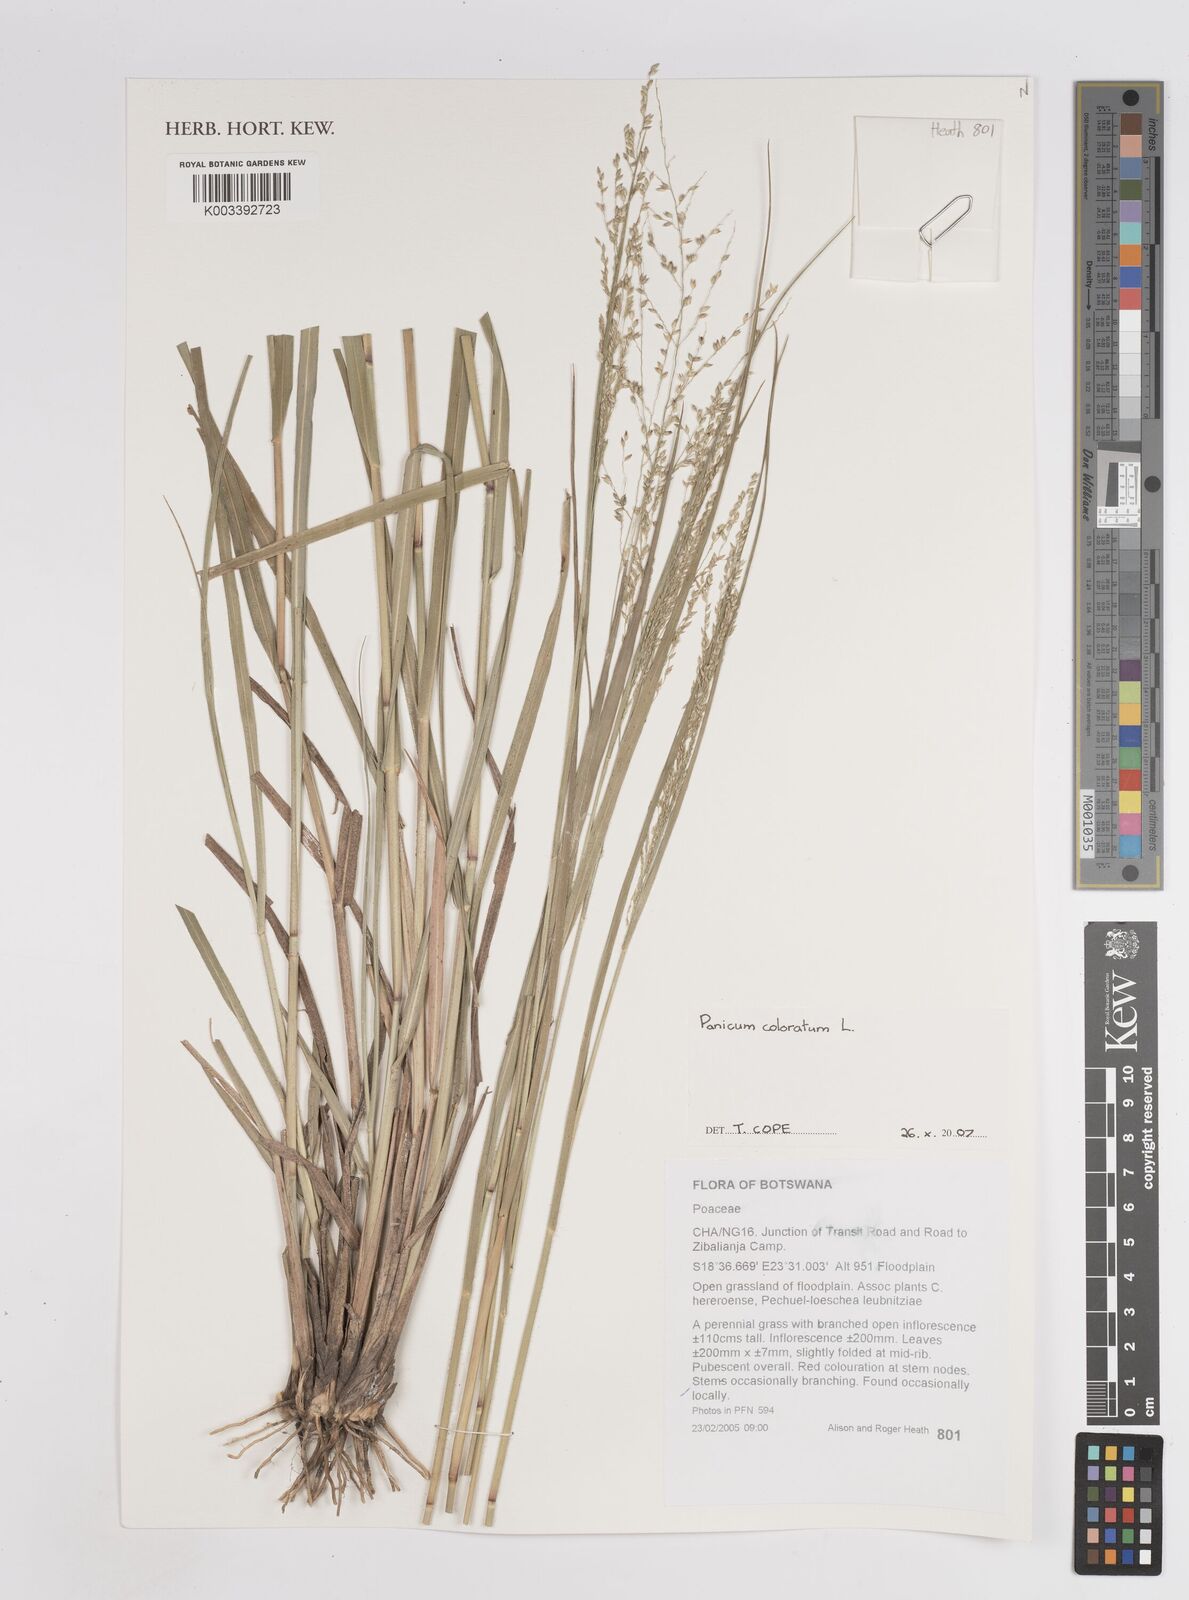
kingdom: Plantae
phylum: Tracheophyta
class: Liliopsida
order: Poales
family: Poaceae
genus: Panicum
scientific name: Panicum coloratum
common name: Kleingrass
